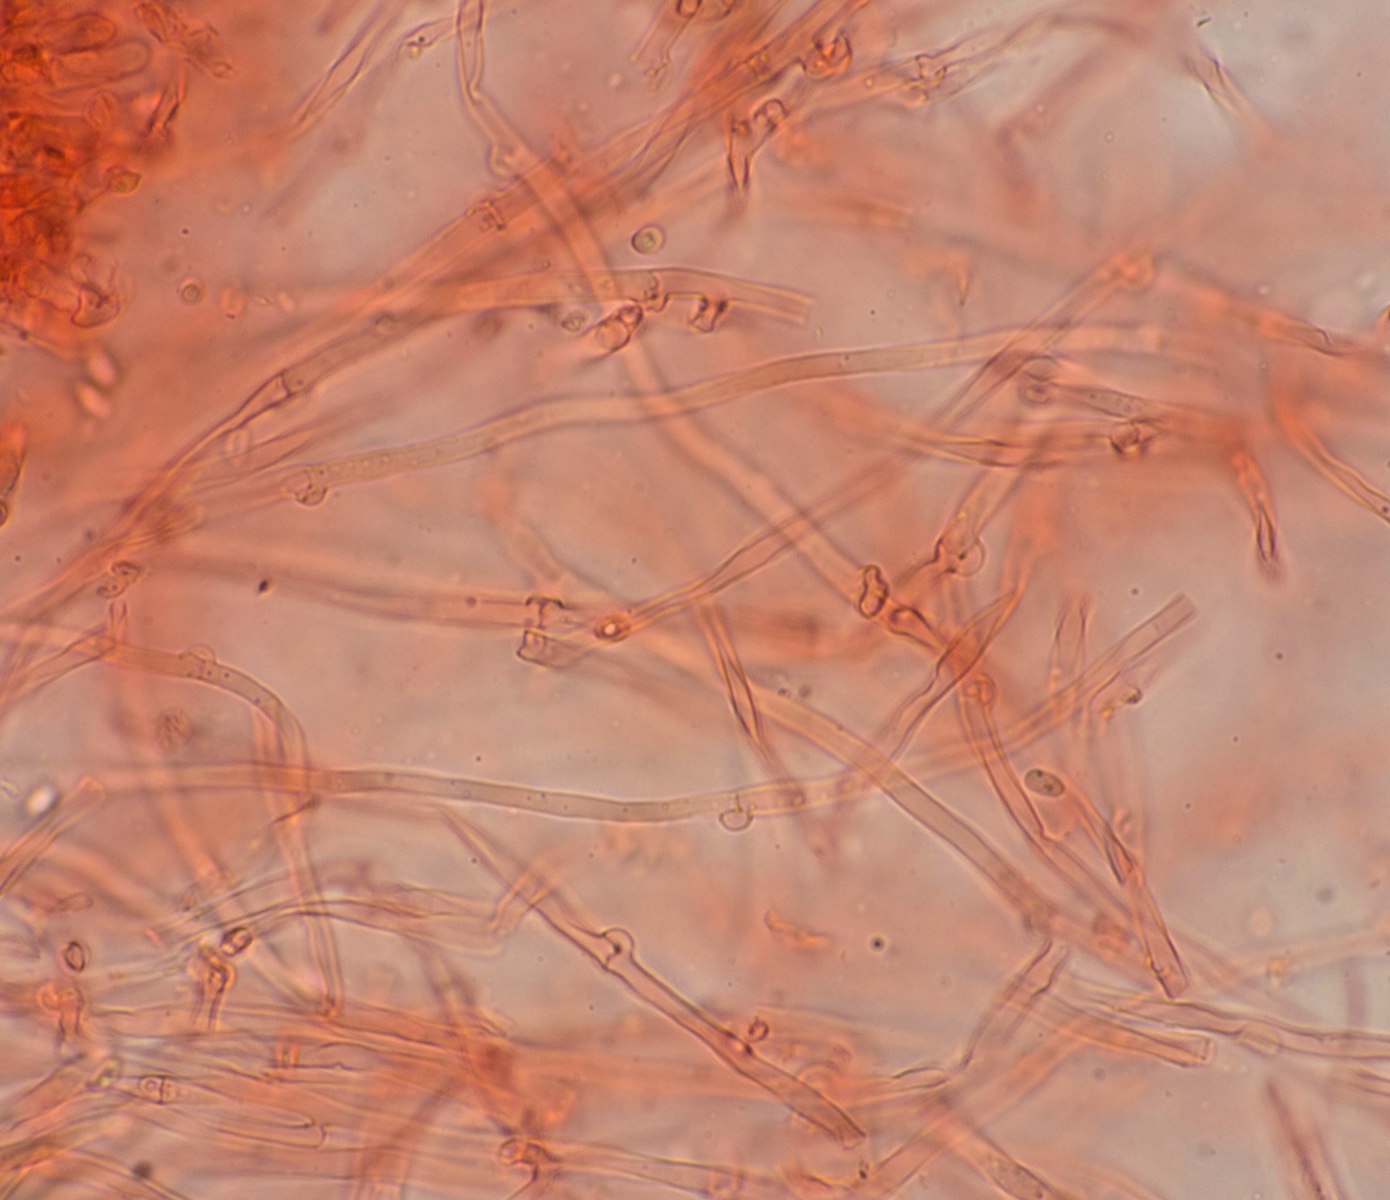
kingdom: Fungi
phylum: Basidiomycota
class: Agaricomycetes
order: Corticiales
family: Corticiaceae
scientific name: Corticiaceae
